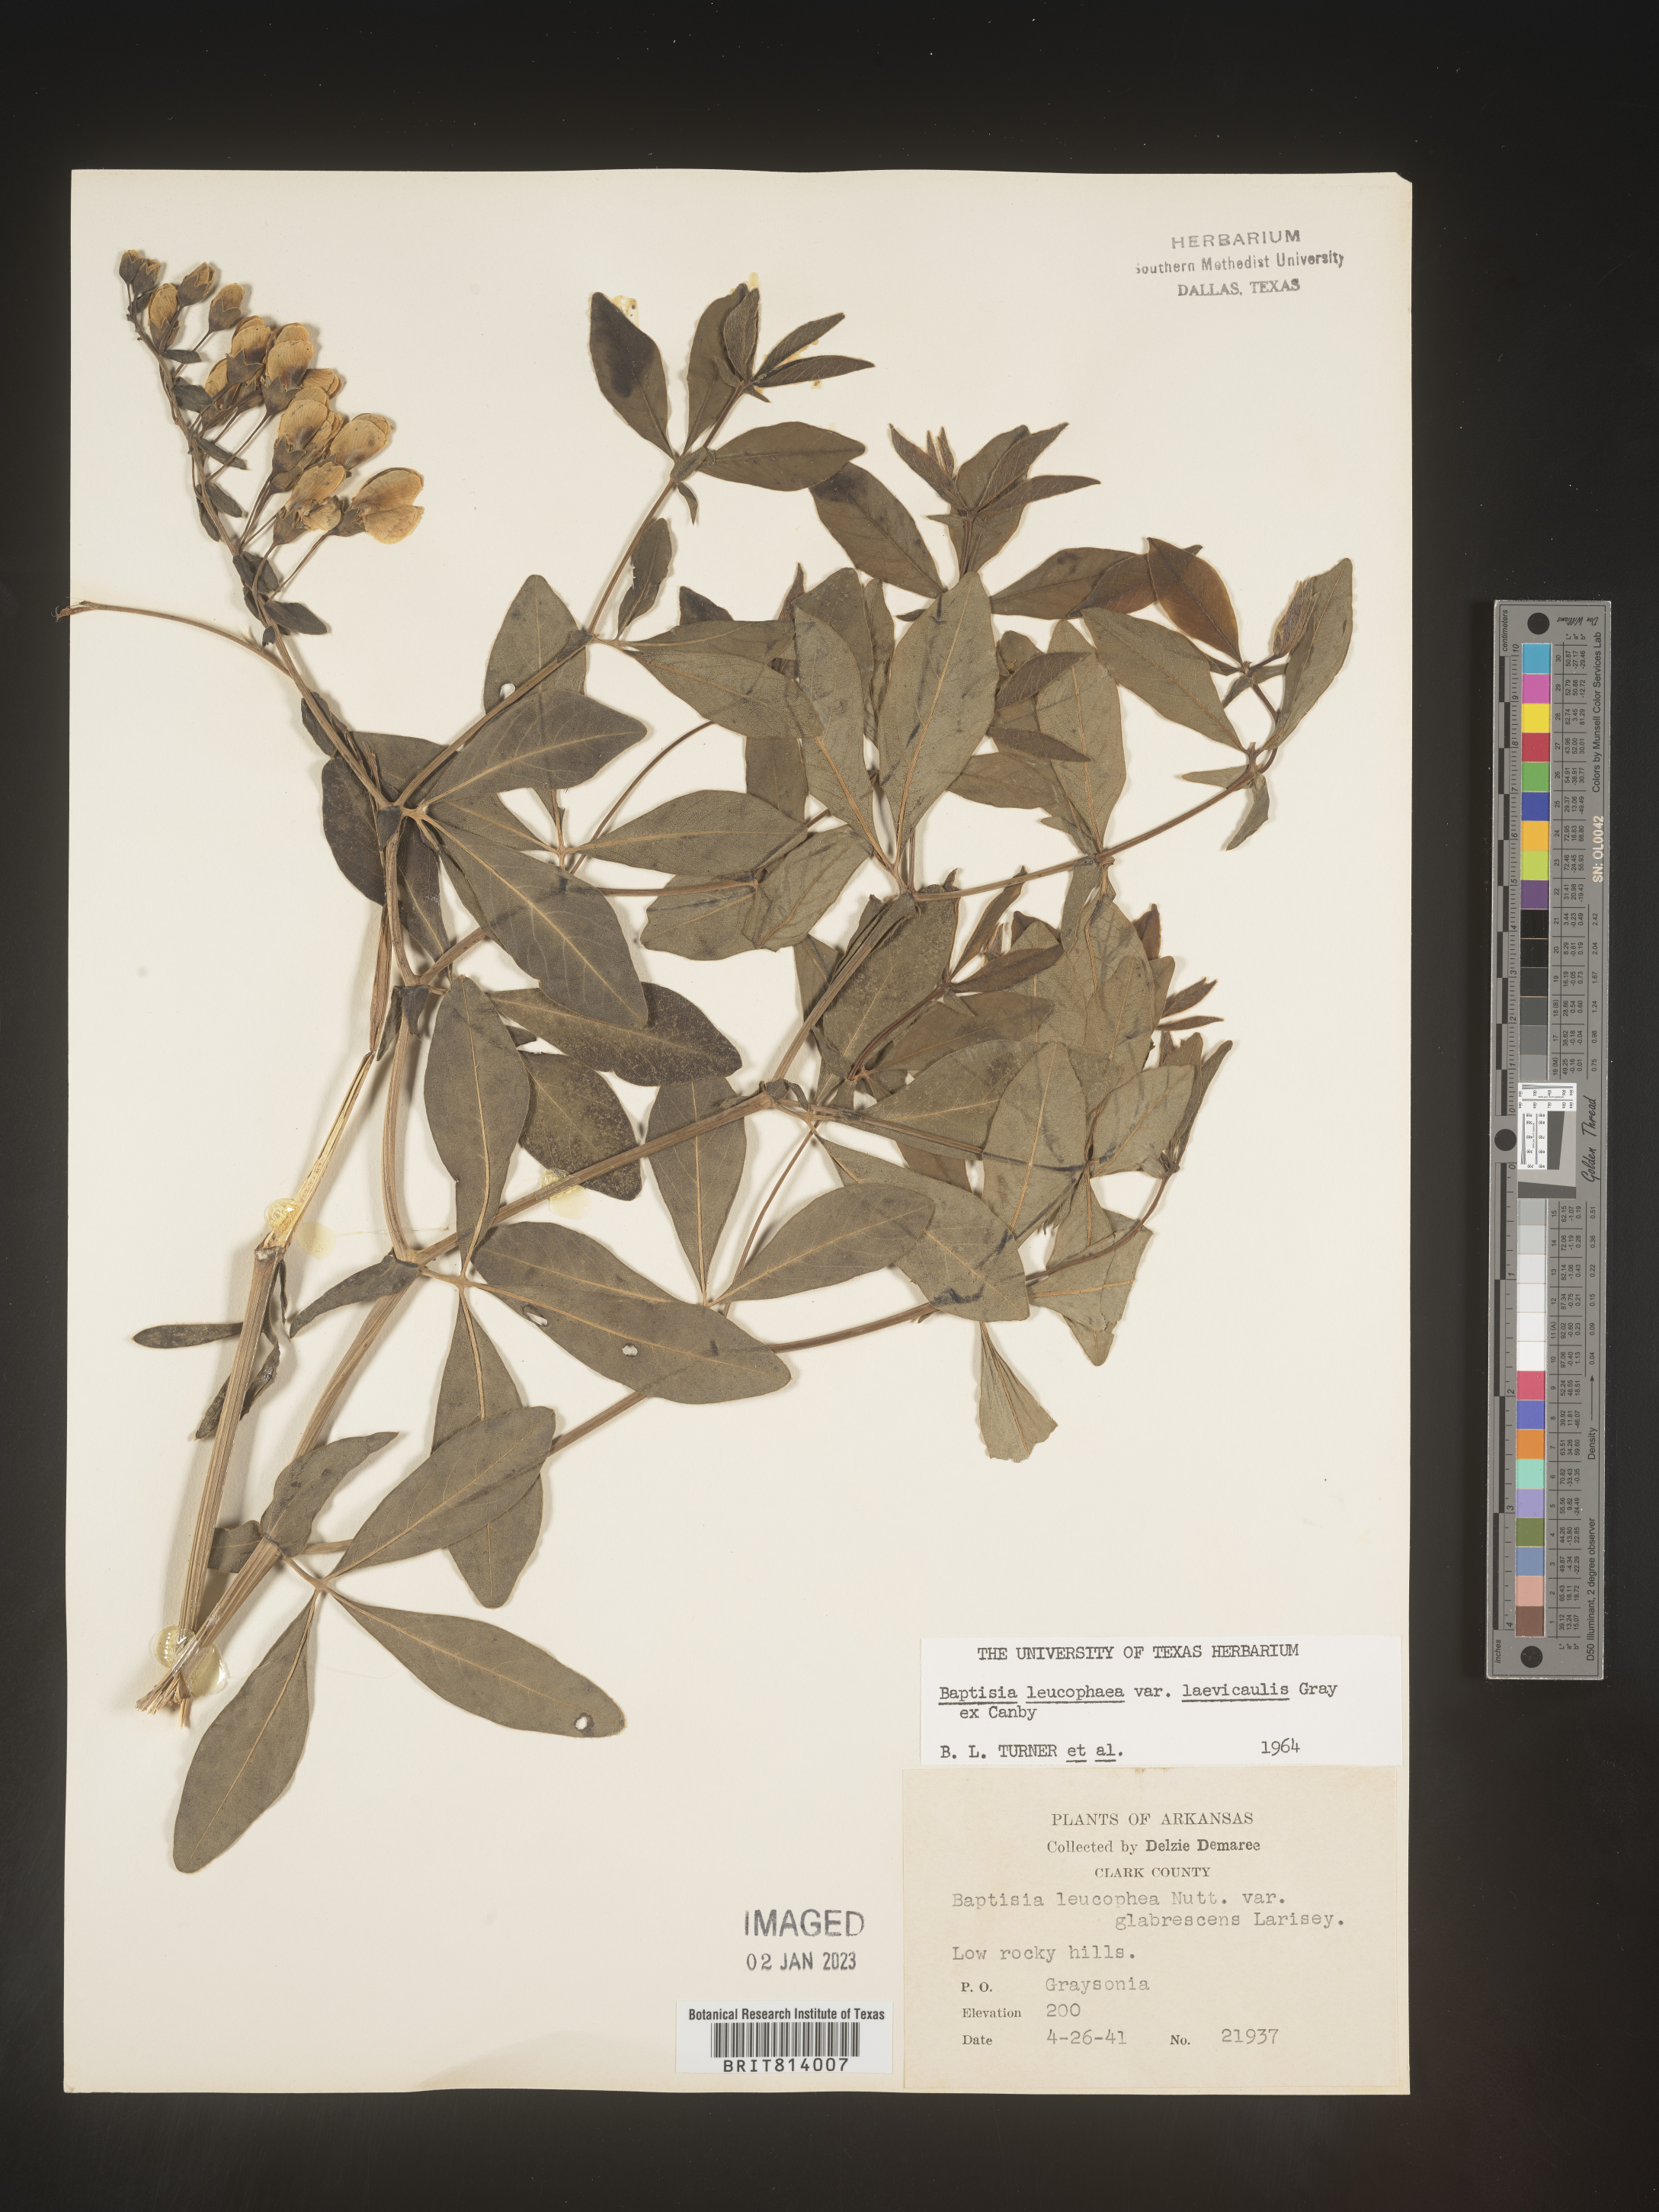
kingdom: Plantae
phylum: Tracheophyta
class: Magnoliopsida
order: Fabales
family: Fabaceae
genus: Baptisia
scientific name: Baptisia bracteata
